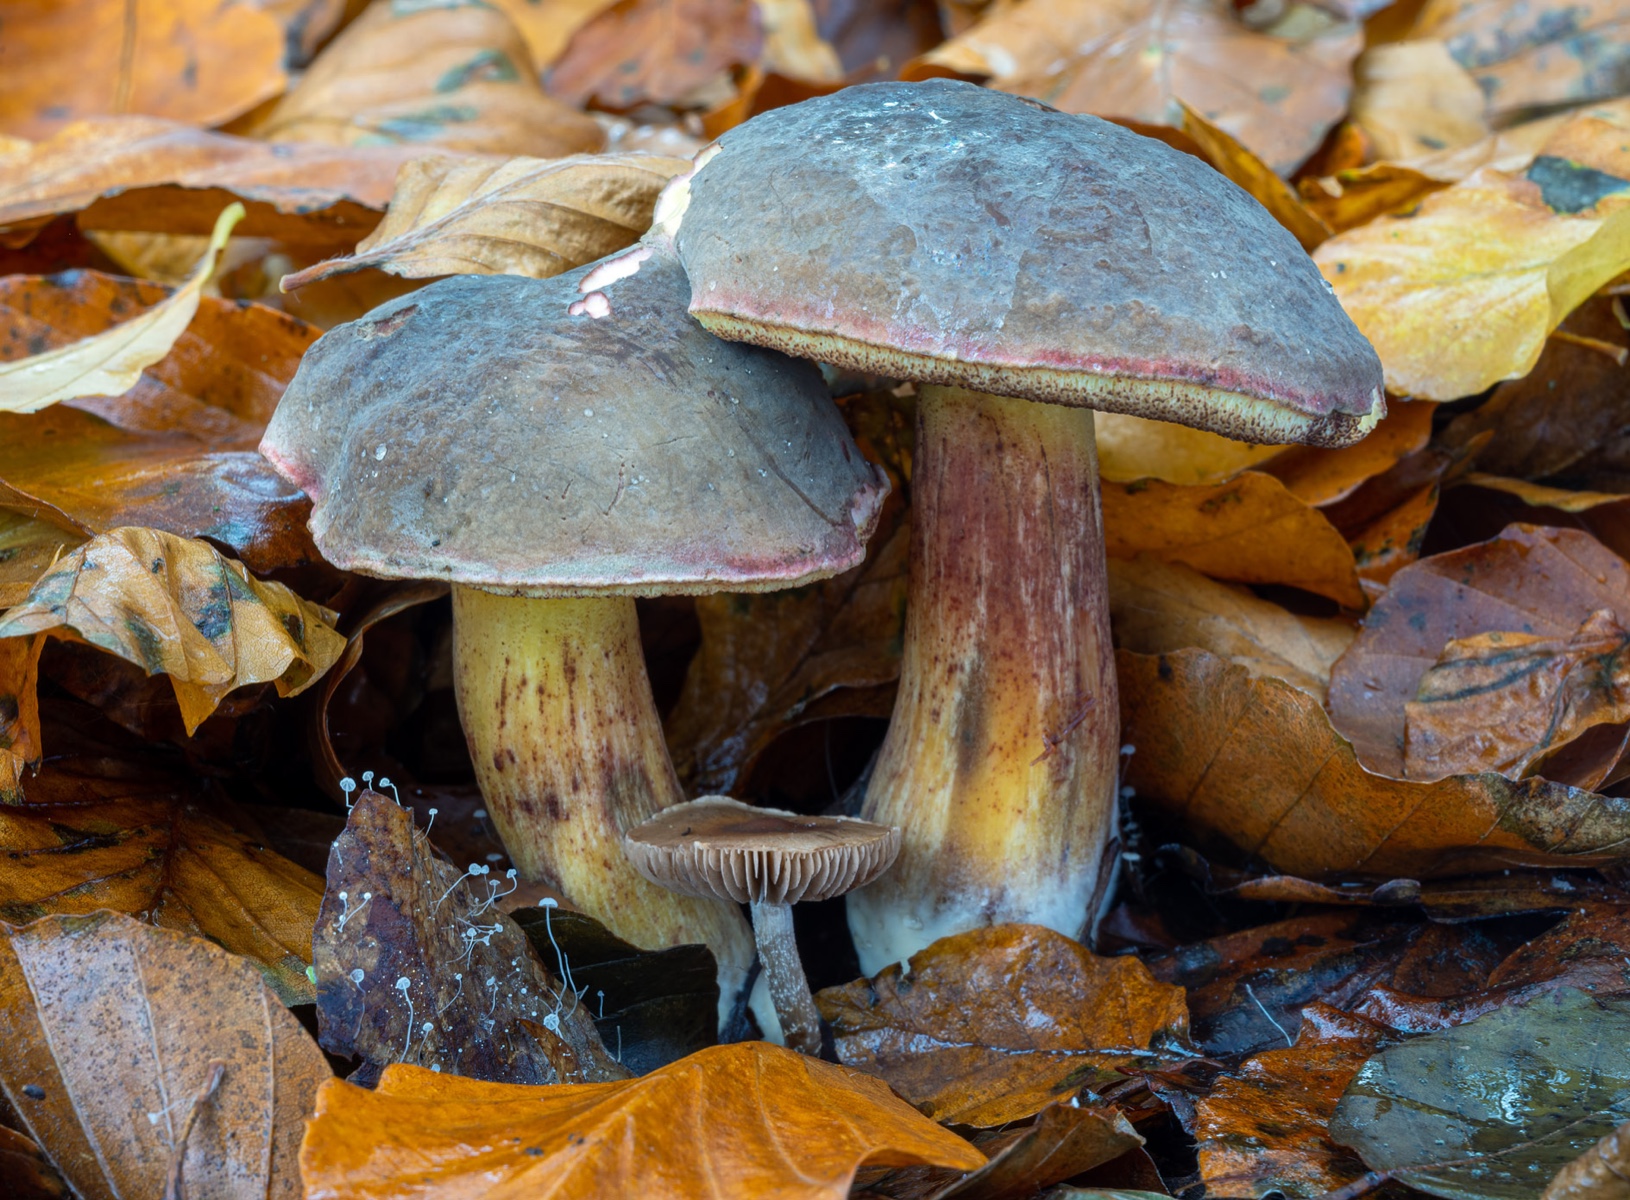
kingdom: Fungi
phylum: Basidiomycota
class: Agaricomycetes
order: Boletales
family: Boletaceae
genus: Xerocomellus
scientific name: Xerocomellus pruinatus
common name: dugget rørhat
